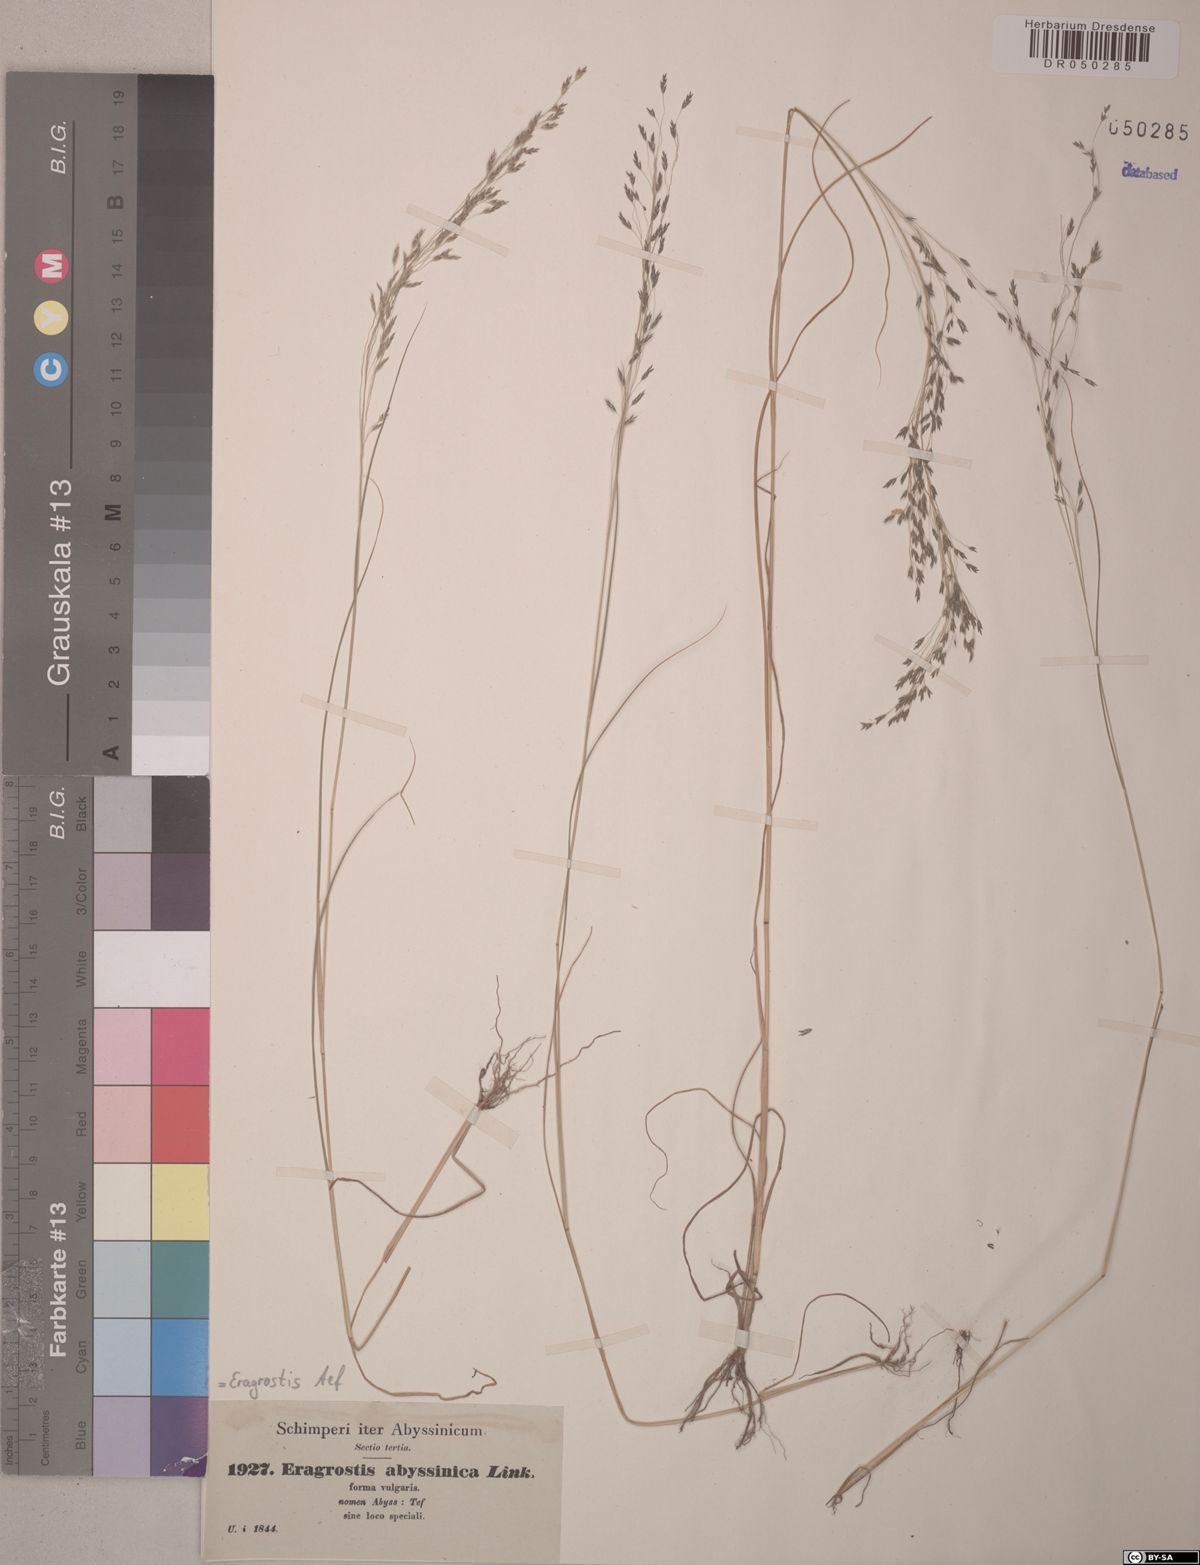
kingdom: Plantae
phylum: Tracheophyta
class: Liliopsida
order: Poales
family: Poaceae
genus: Eragrostis
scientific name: Eragrostis tef
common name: Teff
